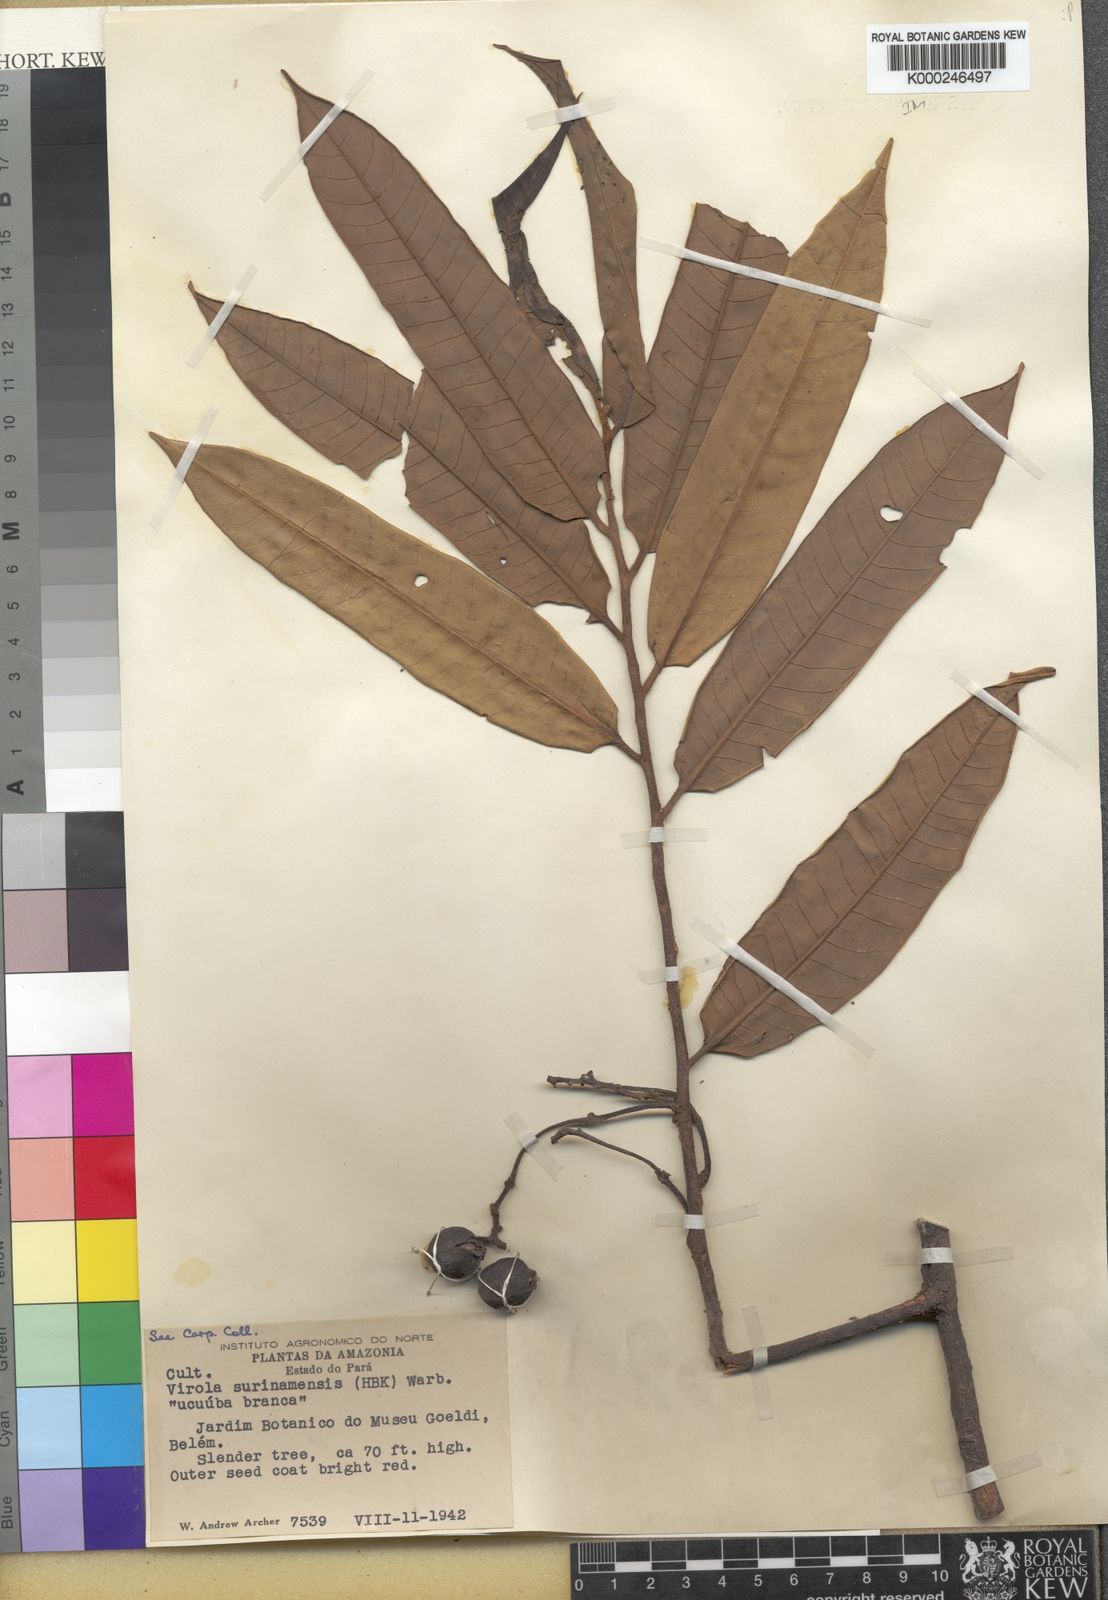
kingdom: Plantae
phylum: Tracheophyta
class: Magnoliopsida
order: Magnoliales
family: Myristicaceae
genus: Virola
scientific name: Virola surinamensis
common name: Baboonwood
